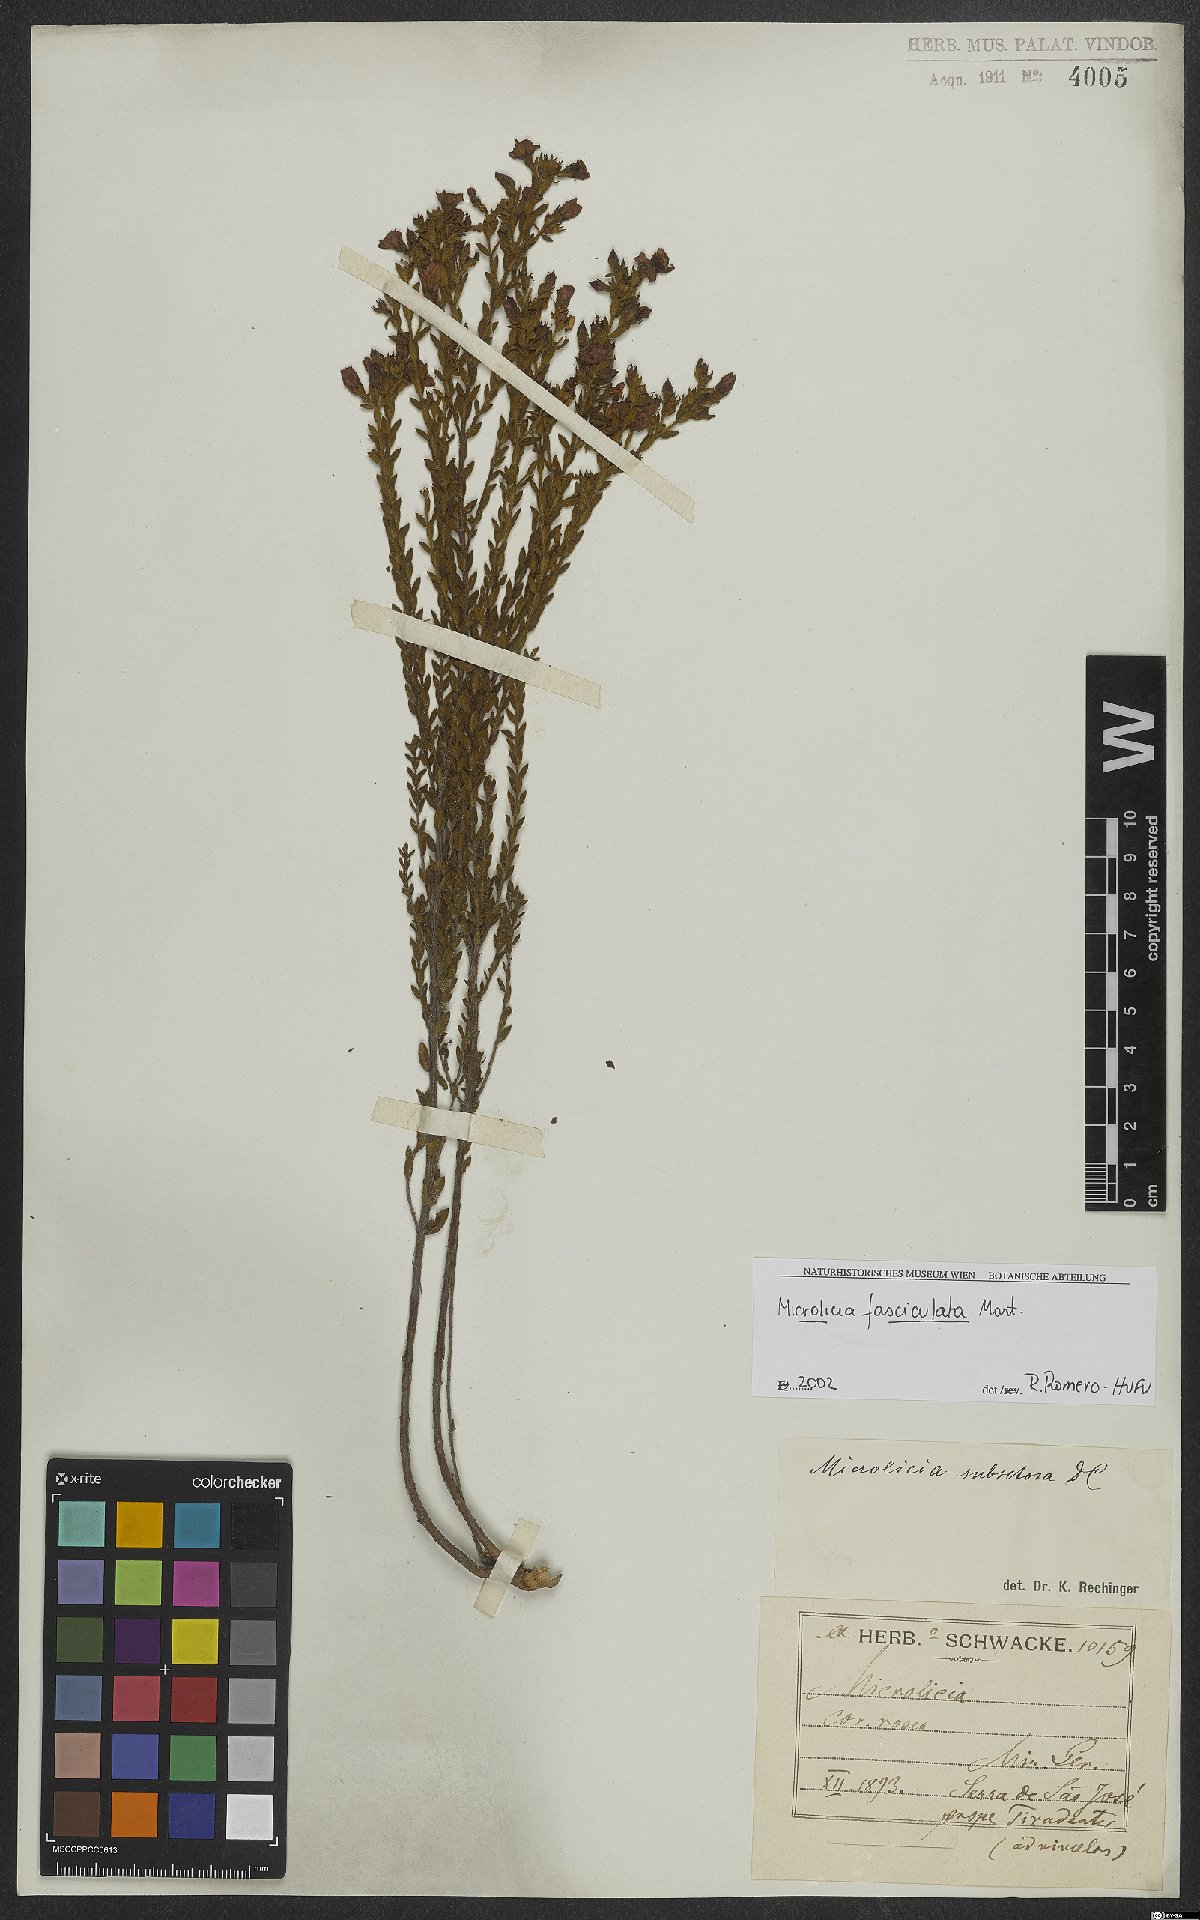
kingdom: Plantae
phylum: Tracheophyta
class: Magnoliopsida
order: Myrtales
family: Melastomataceae
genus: Microlicia
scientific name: Microlicia fasciculata
